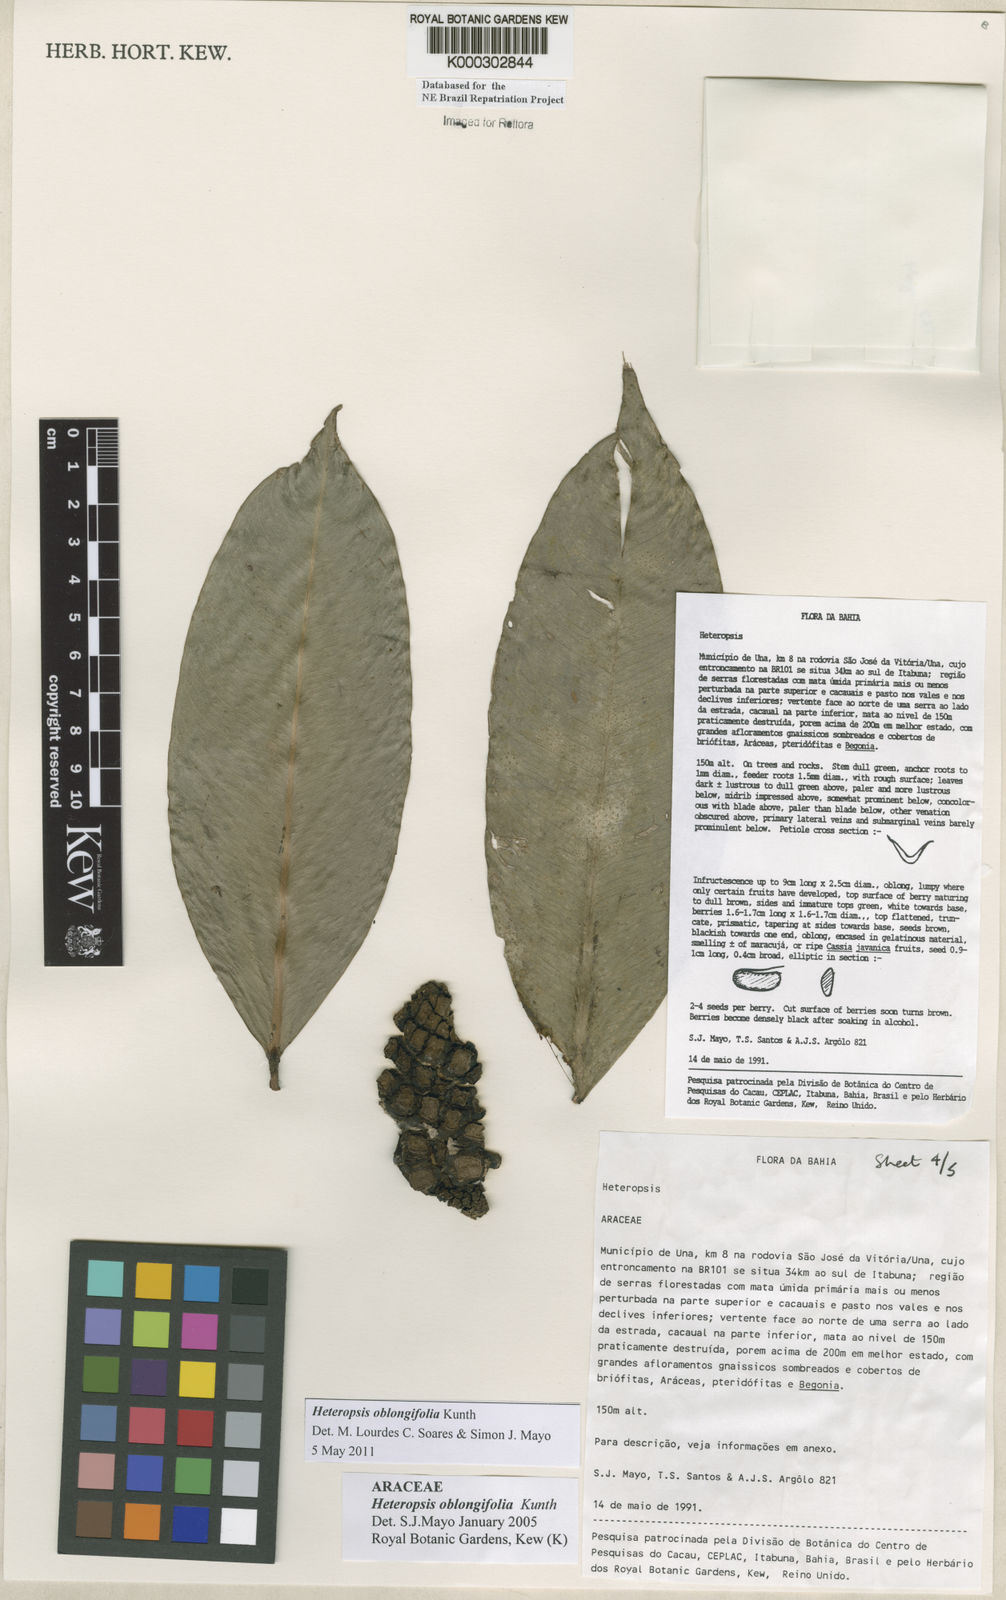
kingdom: Plantae
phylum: Tracheophyta
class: Liliopsida
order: Alismatales
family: Araceae
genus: Heteropsis
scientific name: Heteropsis oblongifolia
